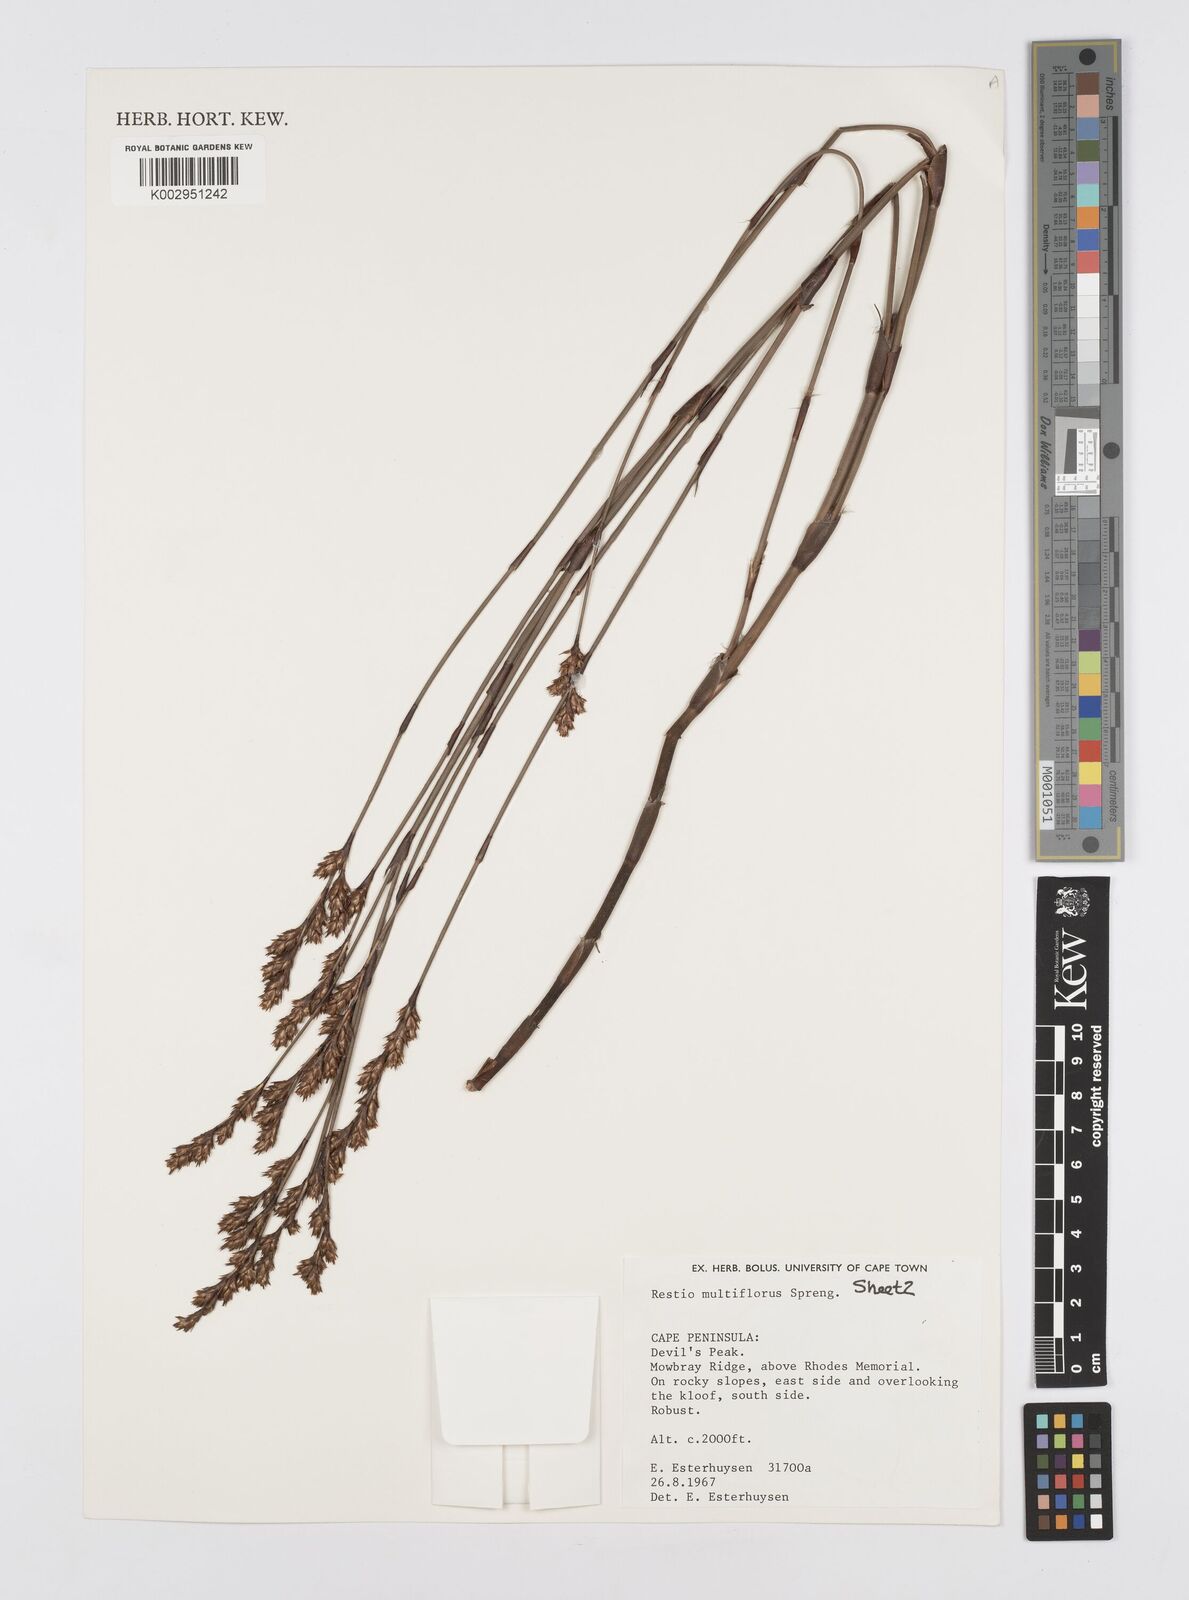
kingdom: Plantae
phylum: Tracheophyta
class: Liliopsida
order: Poales
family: Restionaceae
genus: Restio
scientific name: Restio multiflorus
